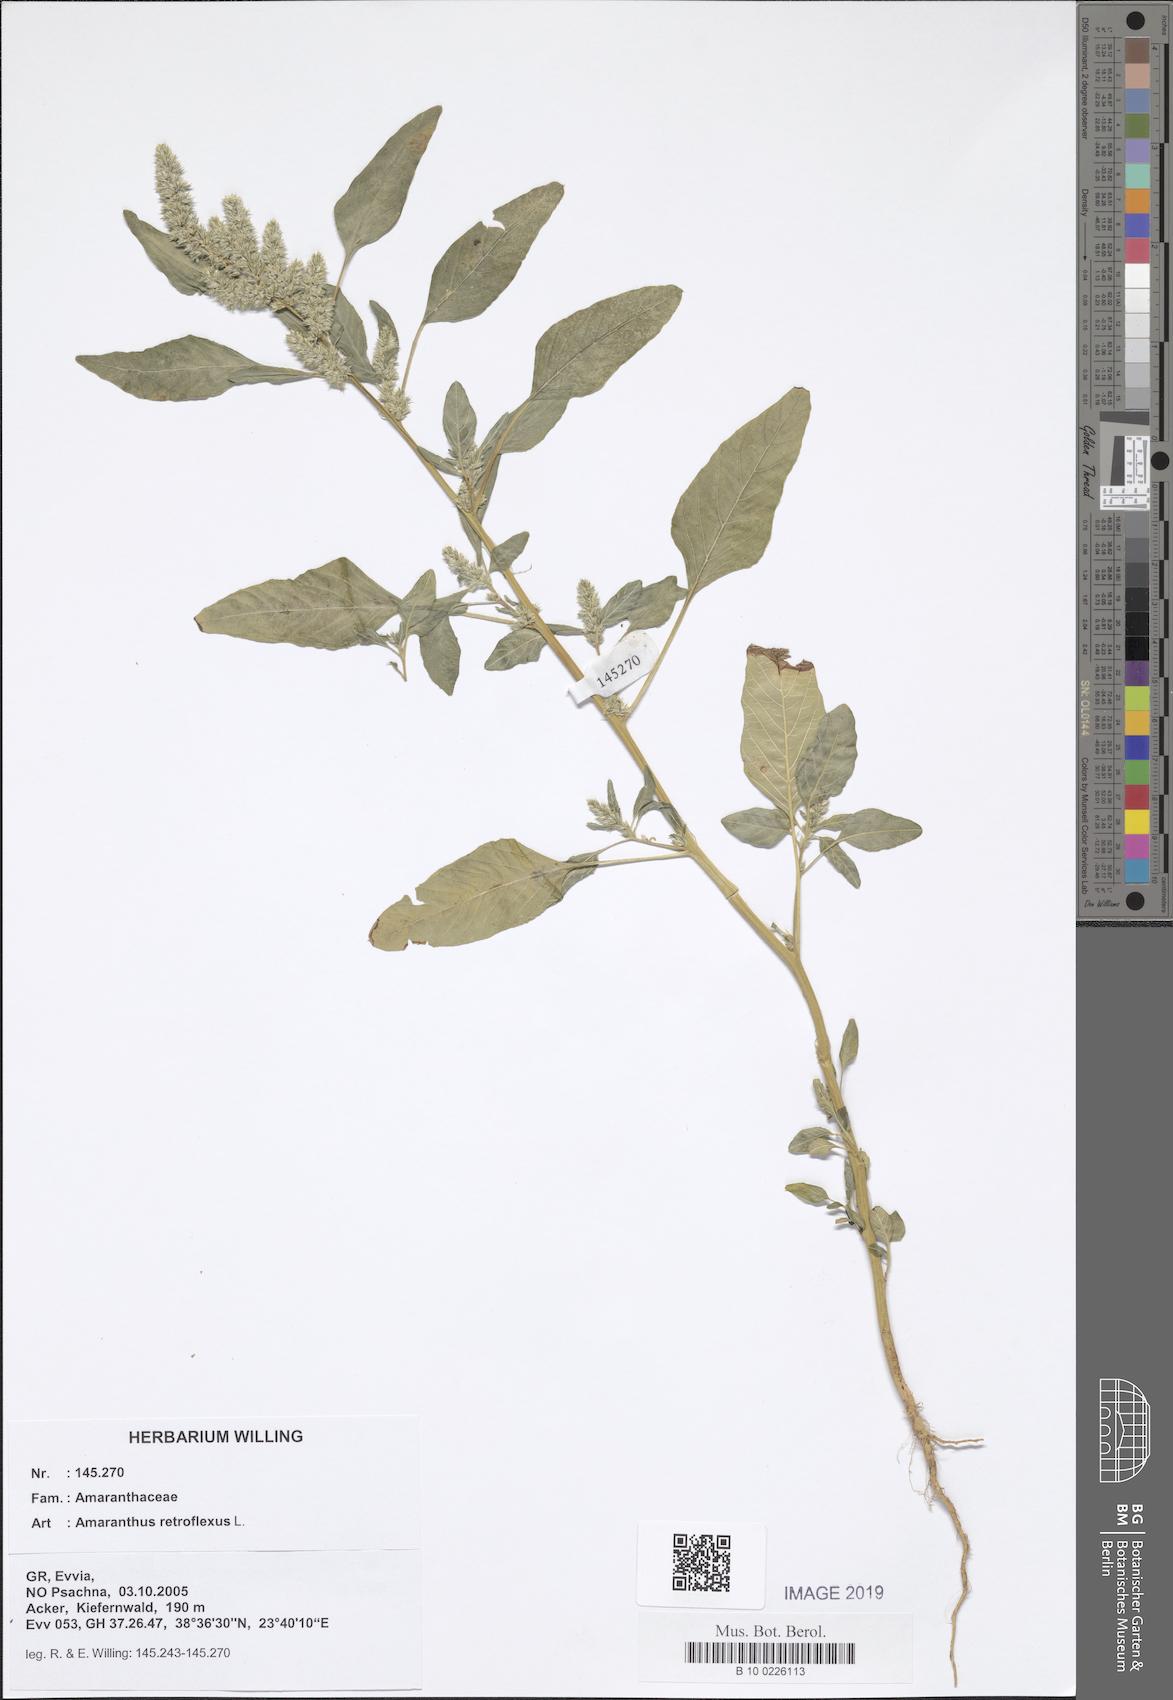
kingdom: Plantae
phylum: Tracheophyta
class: Magnoliopsida
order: Caryophyllales
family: Amaranthaceae
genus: Amaranthus
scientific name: Amaranthus retroflexus
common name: Redroot amaranth
